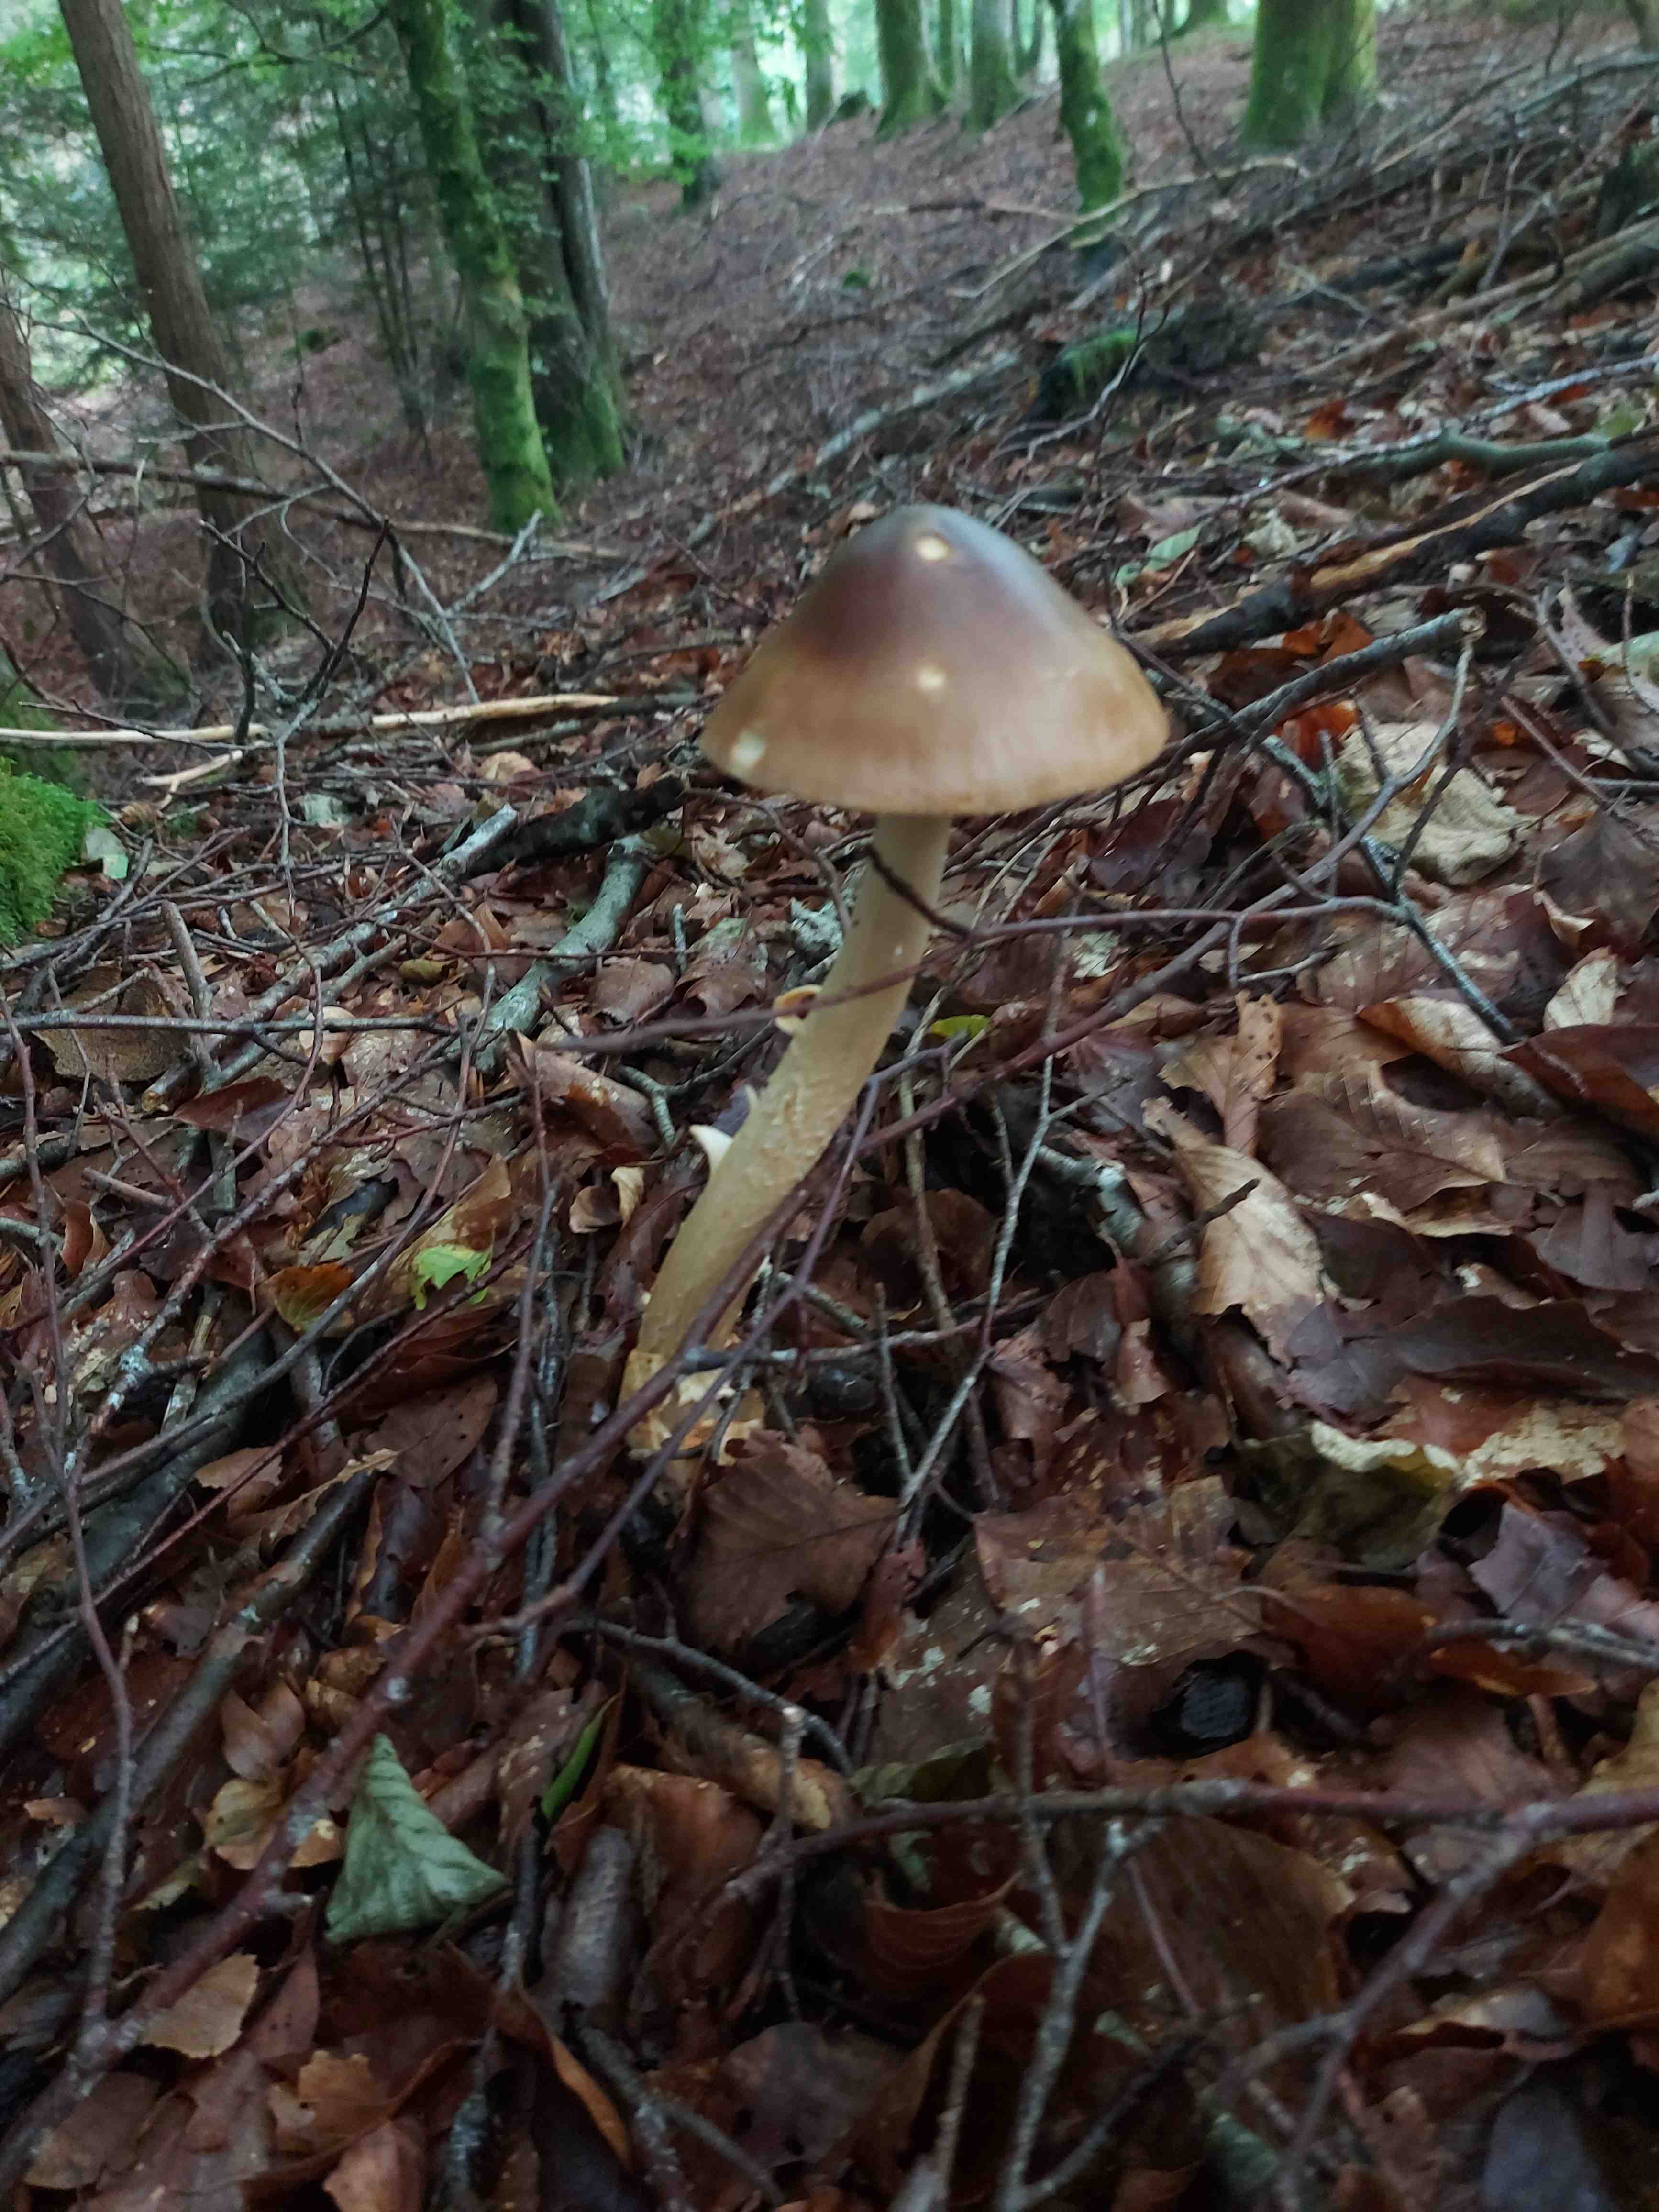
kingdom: Fungi
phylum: Basidiomycota
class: Agaricomycetes
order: Agaricales
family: Amanitaceae
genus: Amanita
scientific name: Amanita fulva
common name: brun kam-fluesvamp
